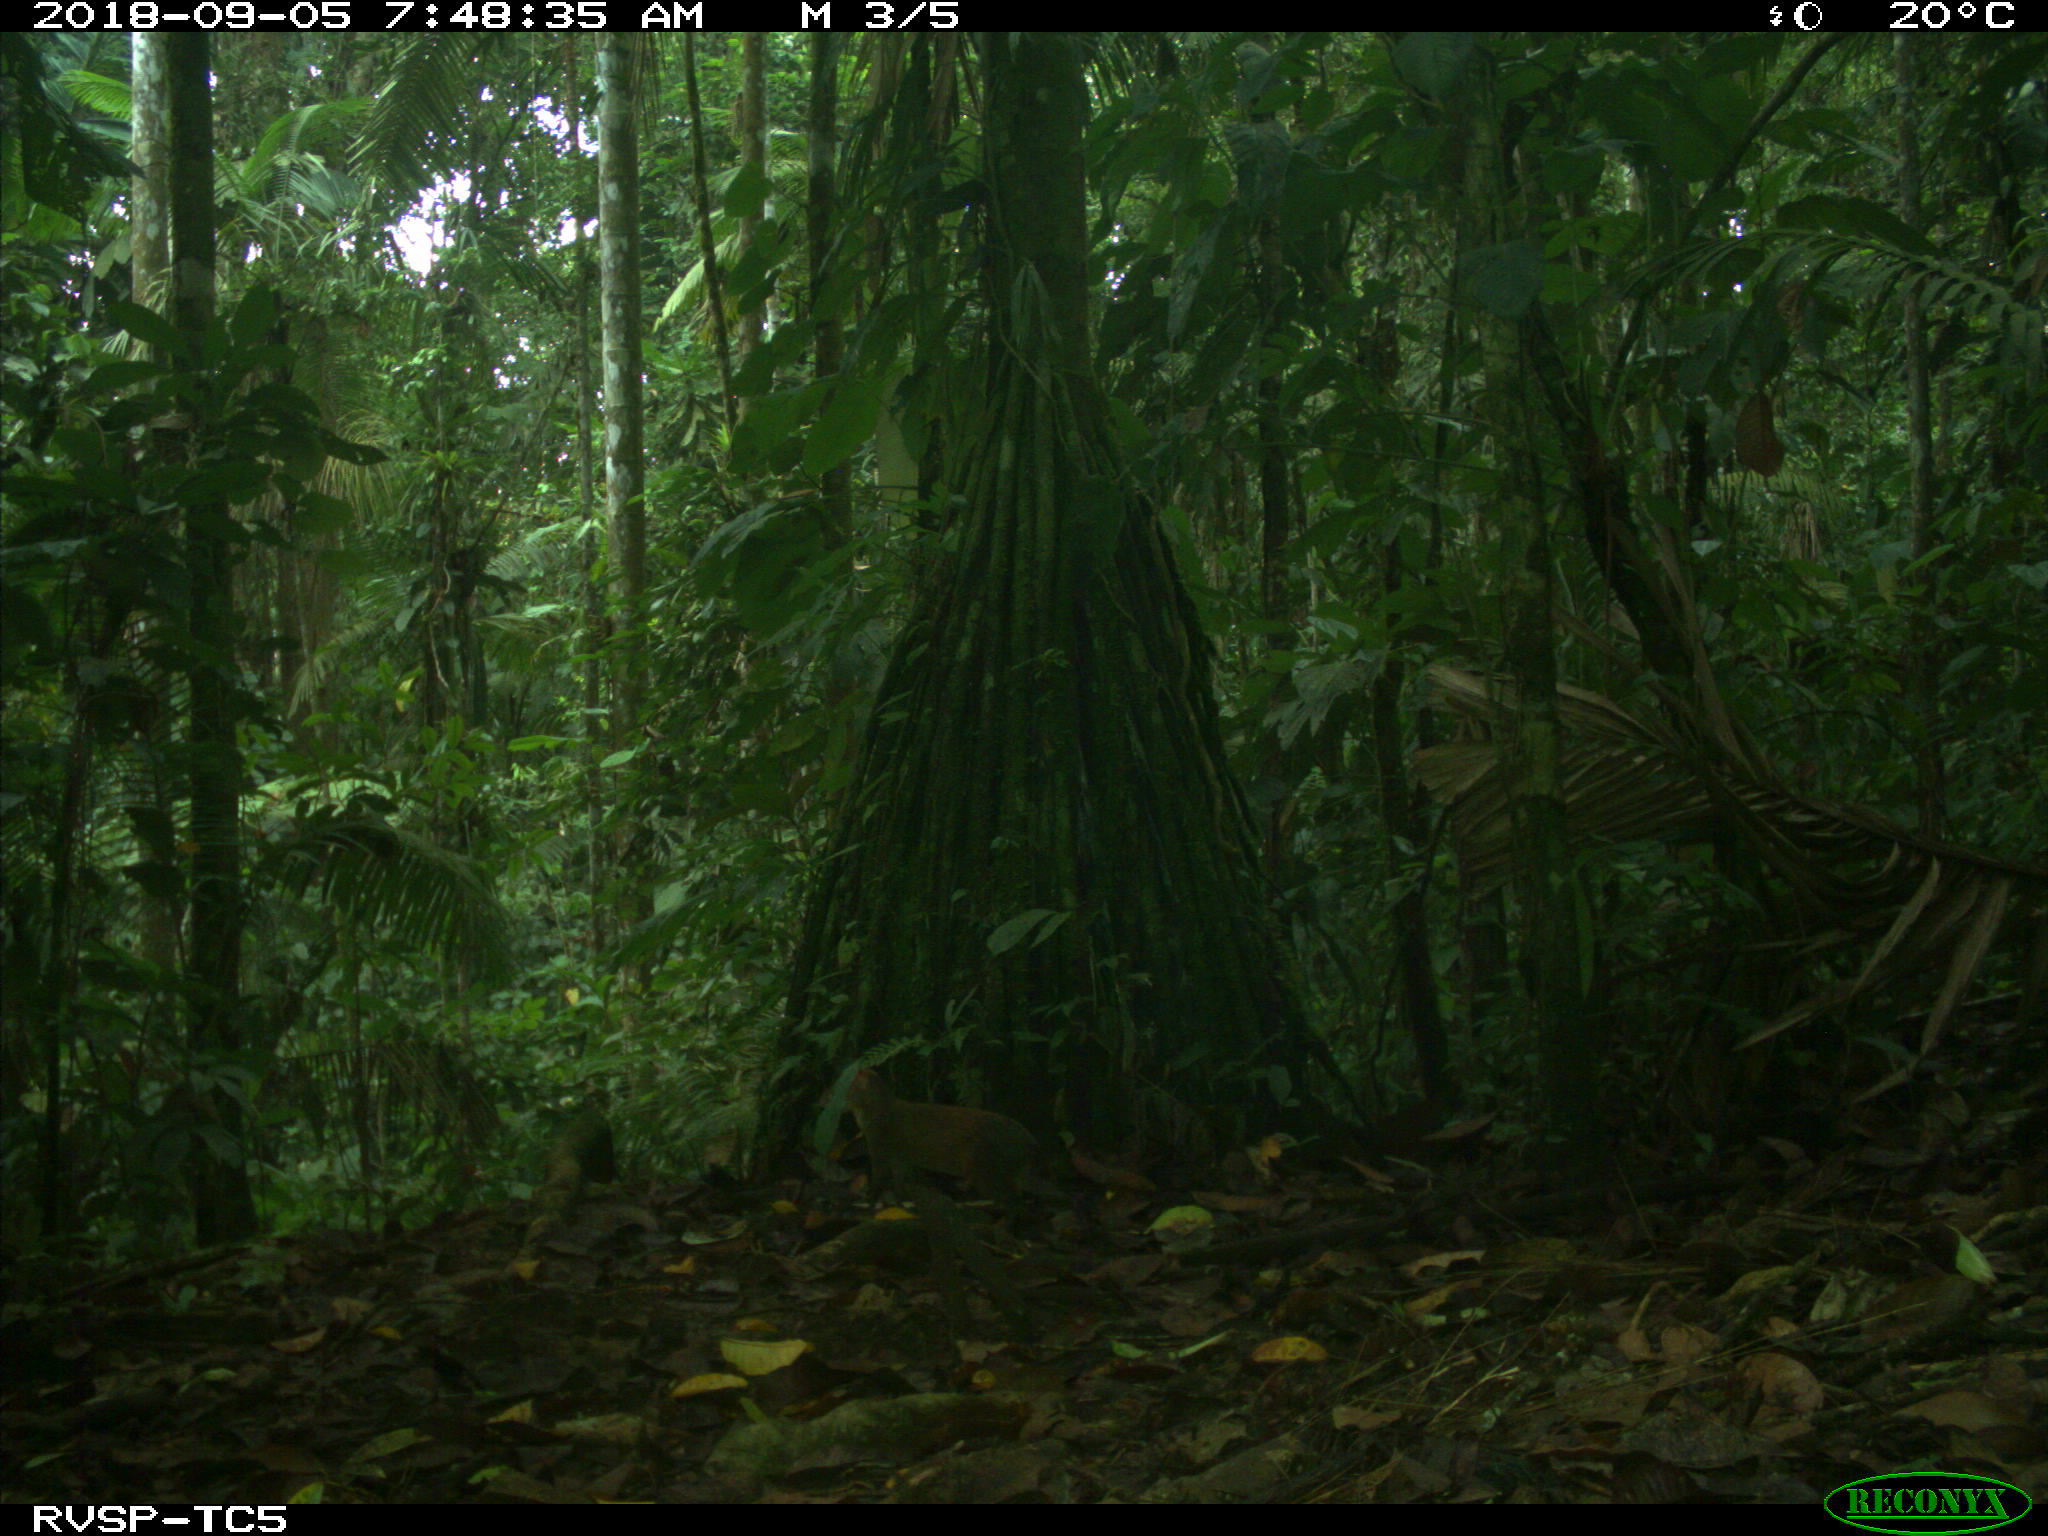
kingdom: Animalia
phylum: Chordata
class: Mammalia
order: Rodentia
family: Dasyproctidae
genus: Dasyprocta
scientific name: Dasyprocta punctata
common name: Central american agouti
